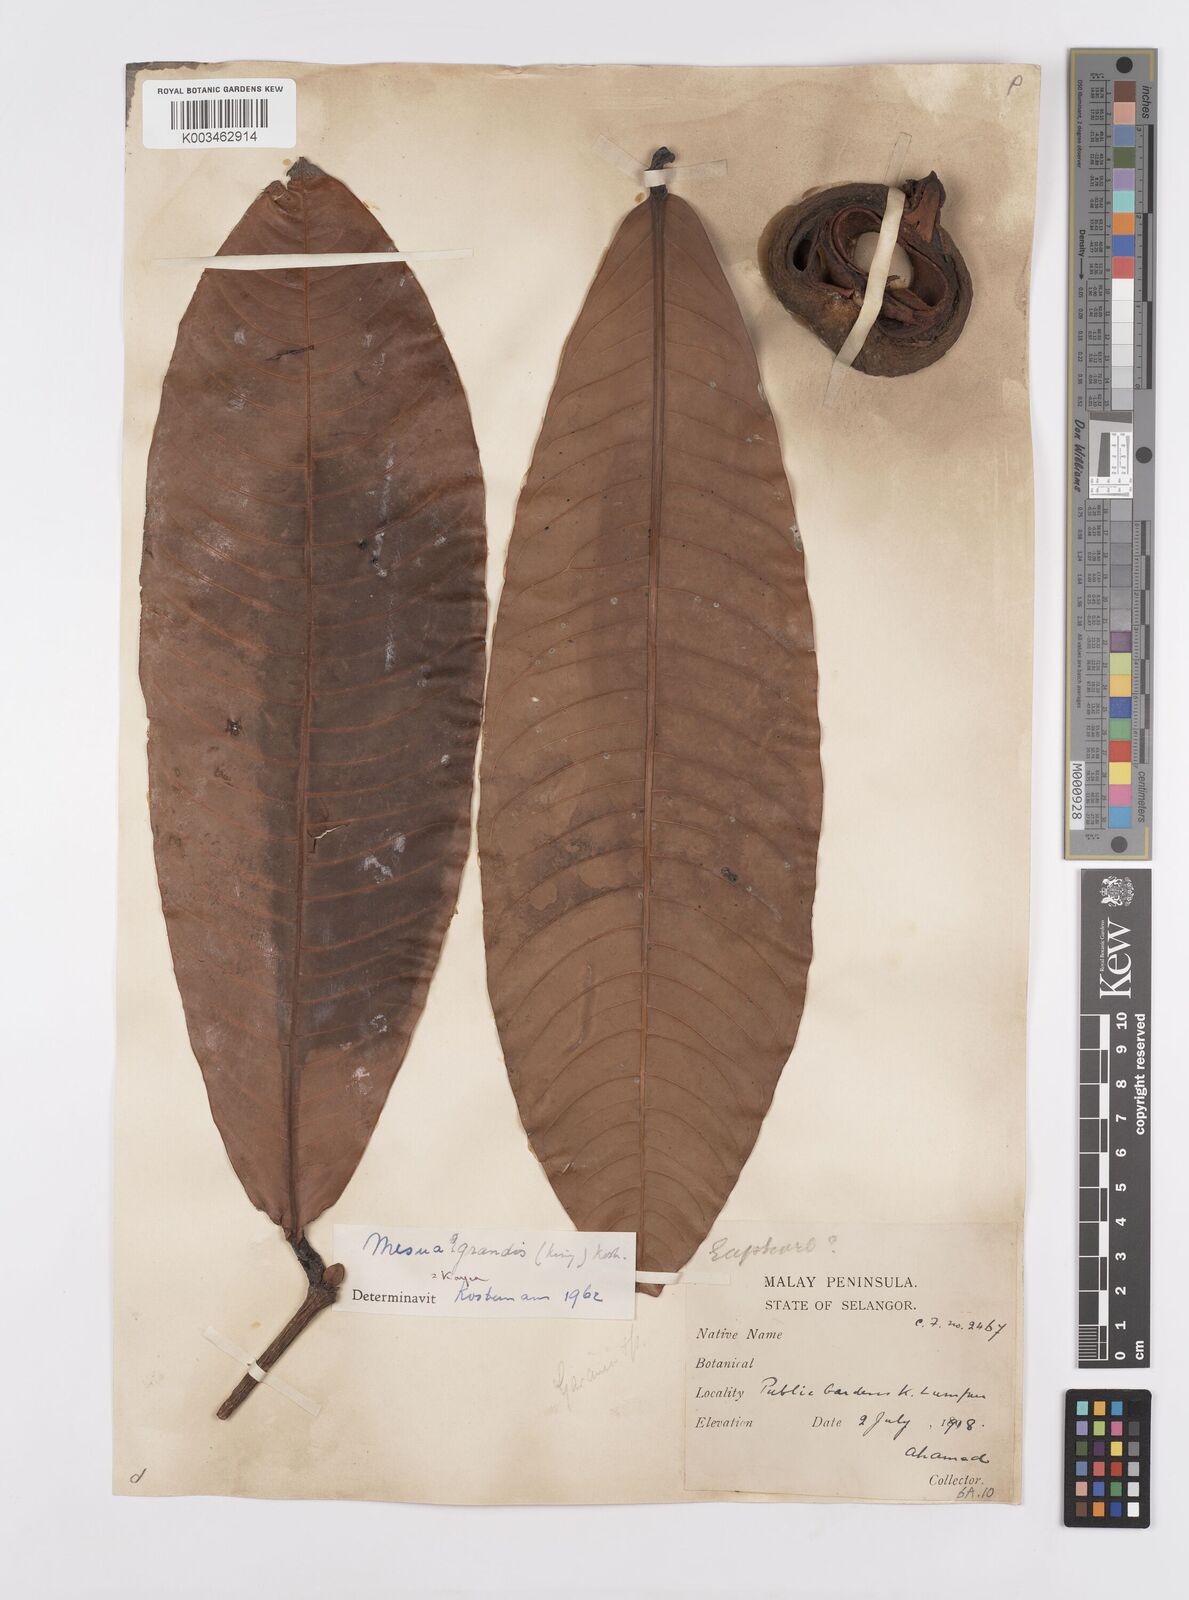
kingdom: Plantae
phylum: Tracheophyta
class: Magnoliopsida
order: Malpighiales
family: Calophyllaceae
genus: Kayea
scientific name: Kayea grandis
